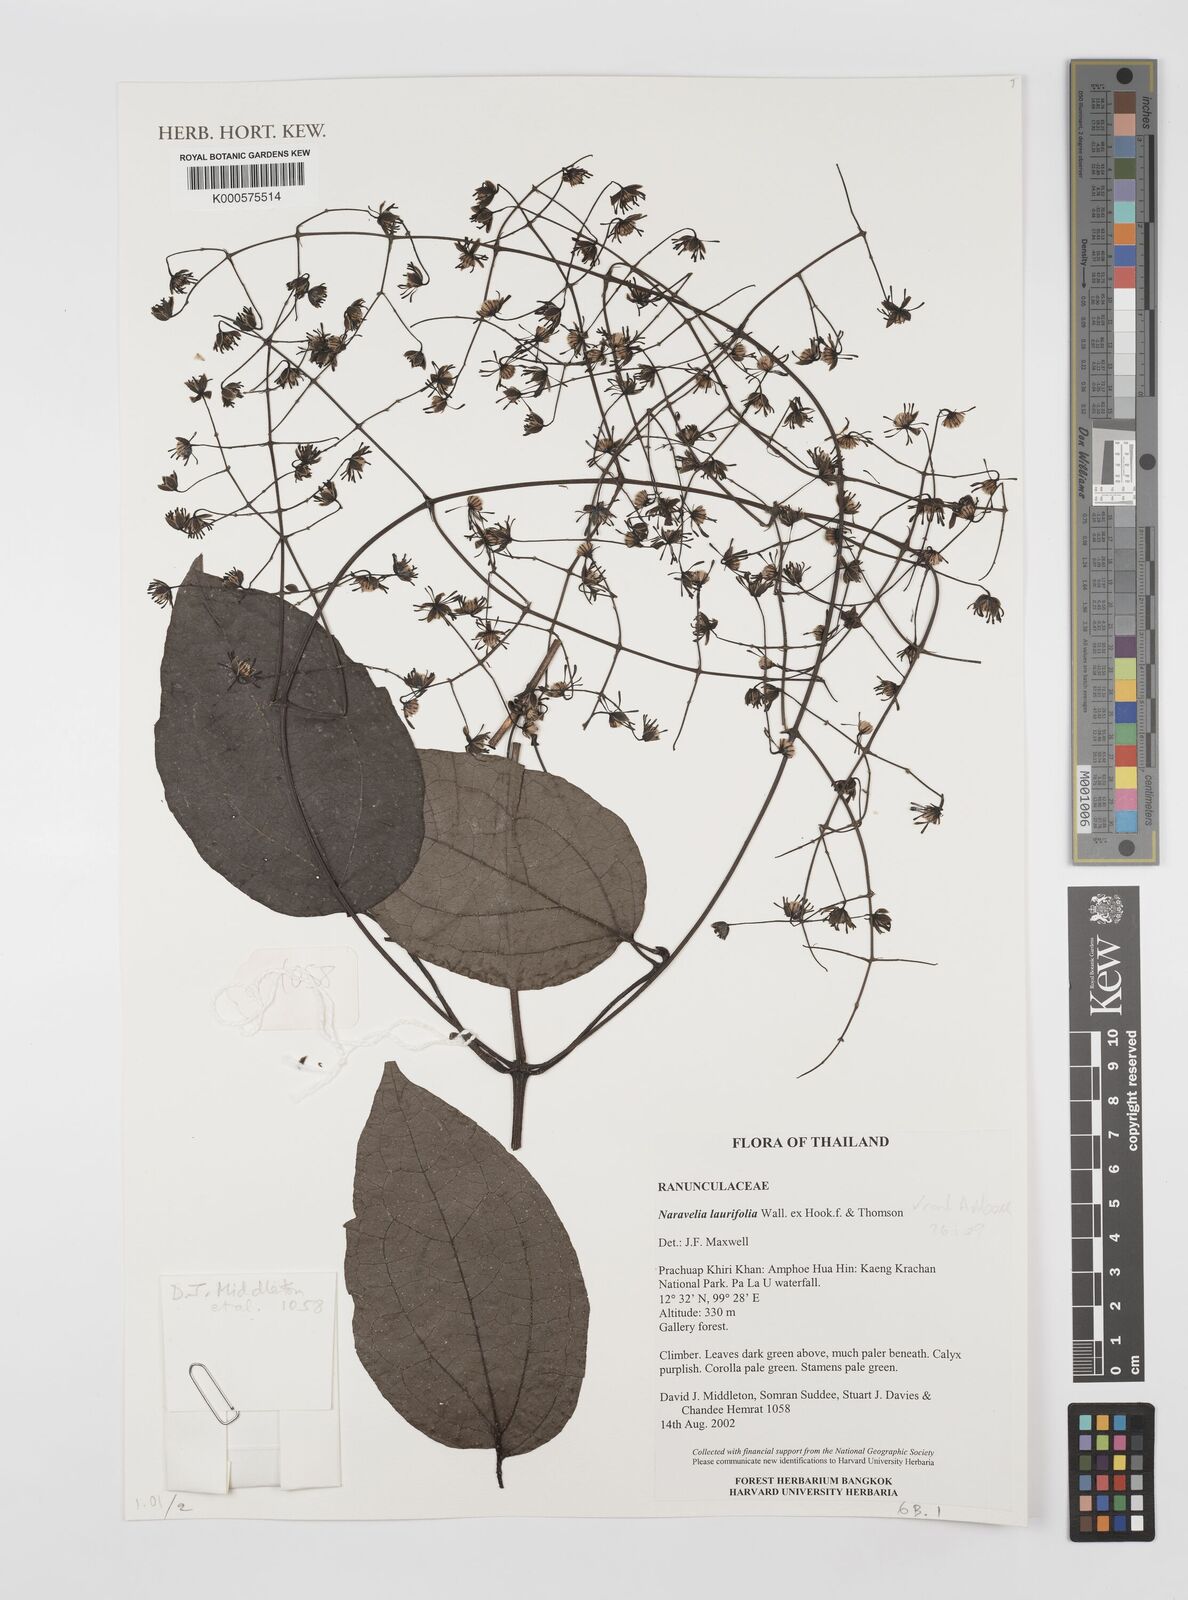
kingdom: Plantae
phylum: Tracheophyta
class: Magnoliopsida
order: Ranunculales
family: Ranunculaceae
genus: Clematis
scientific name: Clematis horripilata
